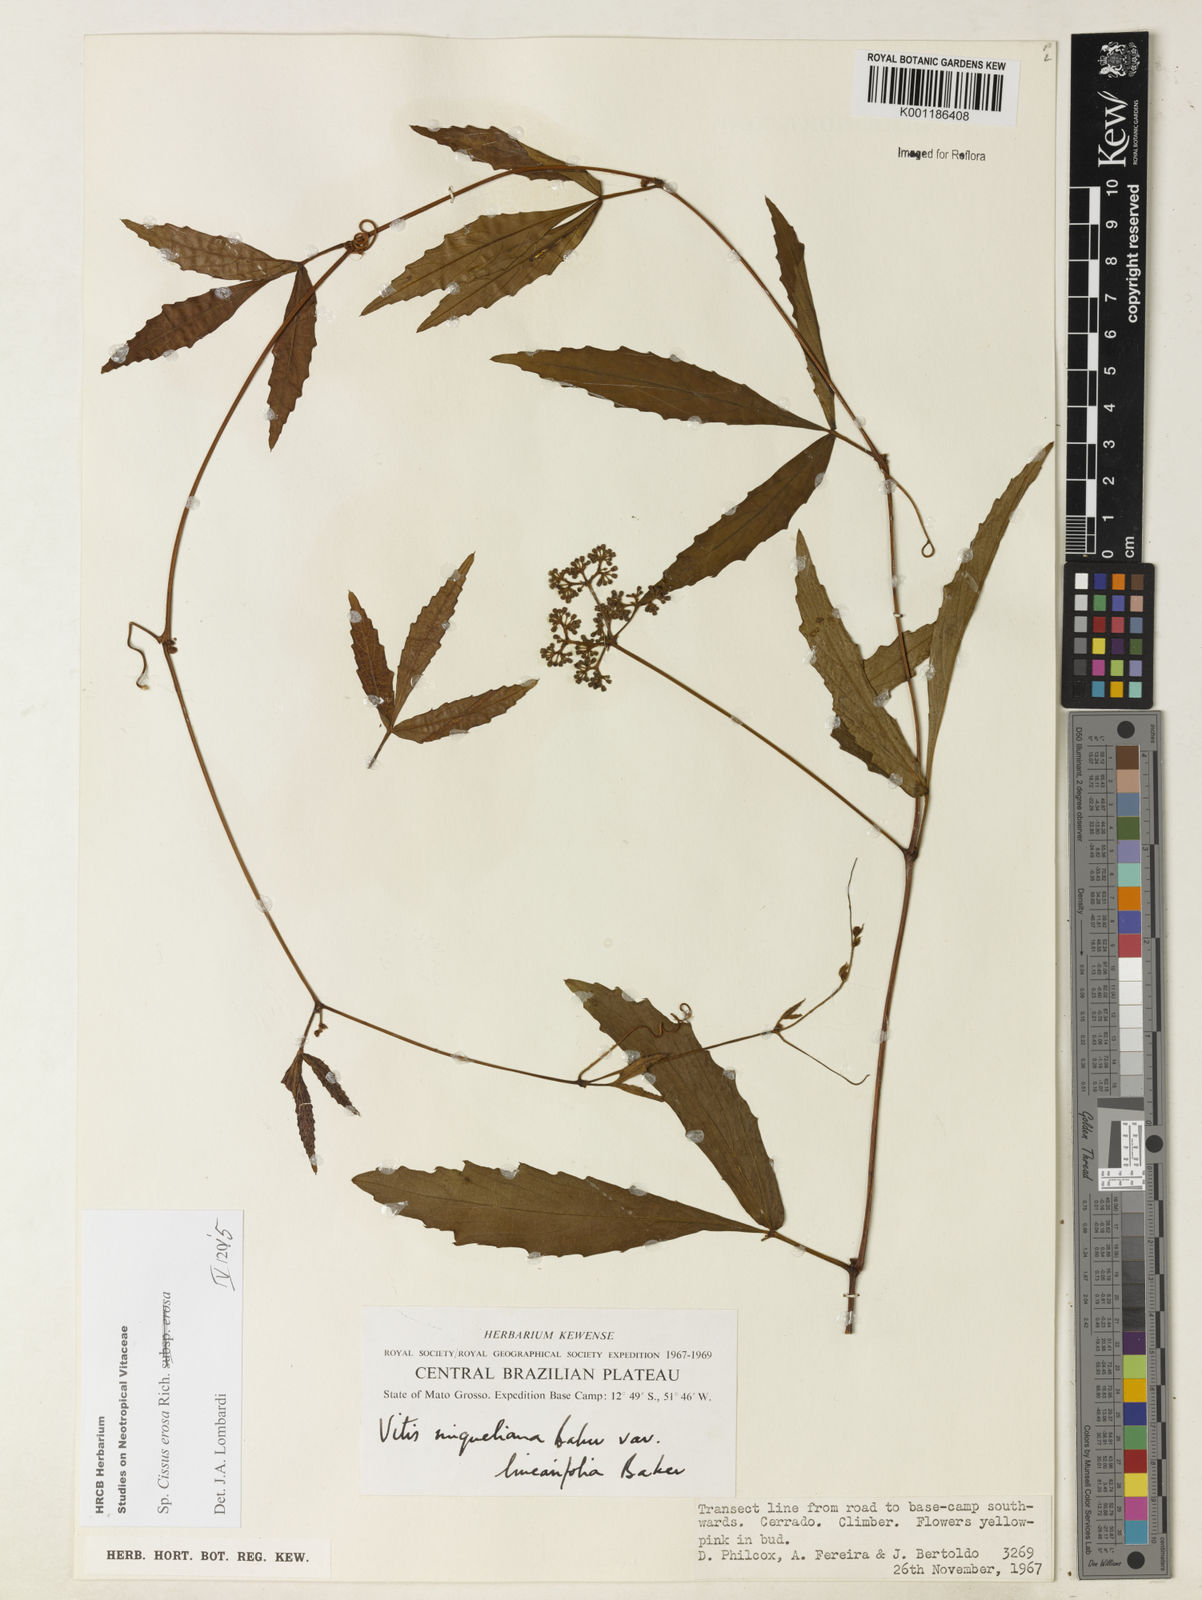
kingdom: Plantae
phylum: Tracheophyta
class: Magnoliopsida
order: Vitales
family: Vitaceae
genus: Cissus
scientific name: Cissus erosa
